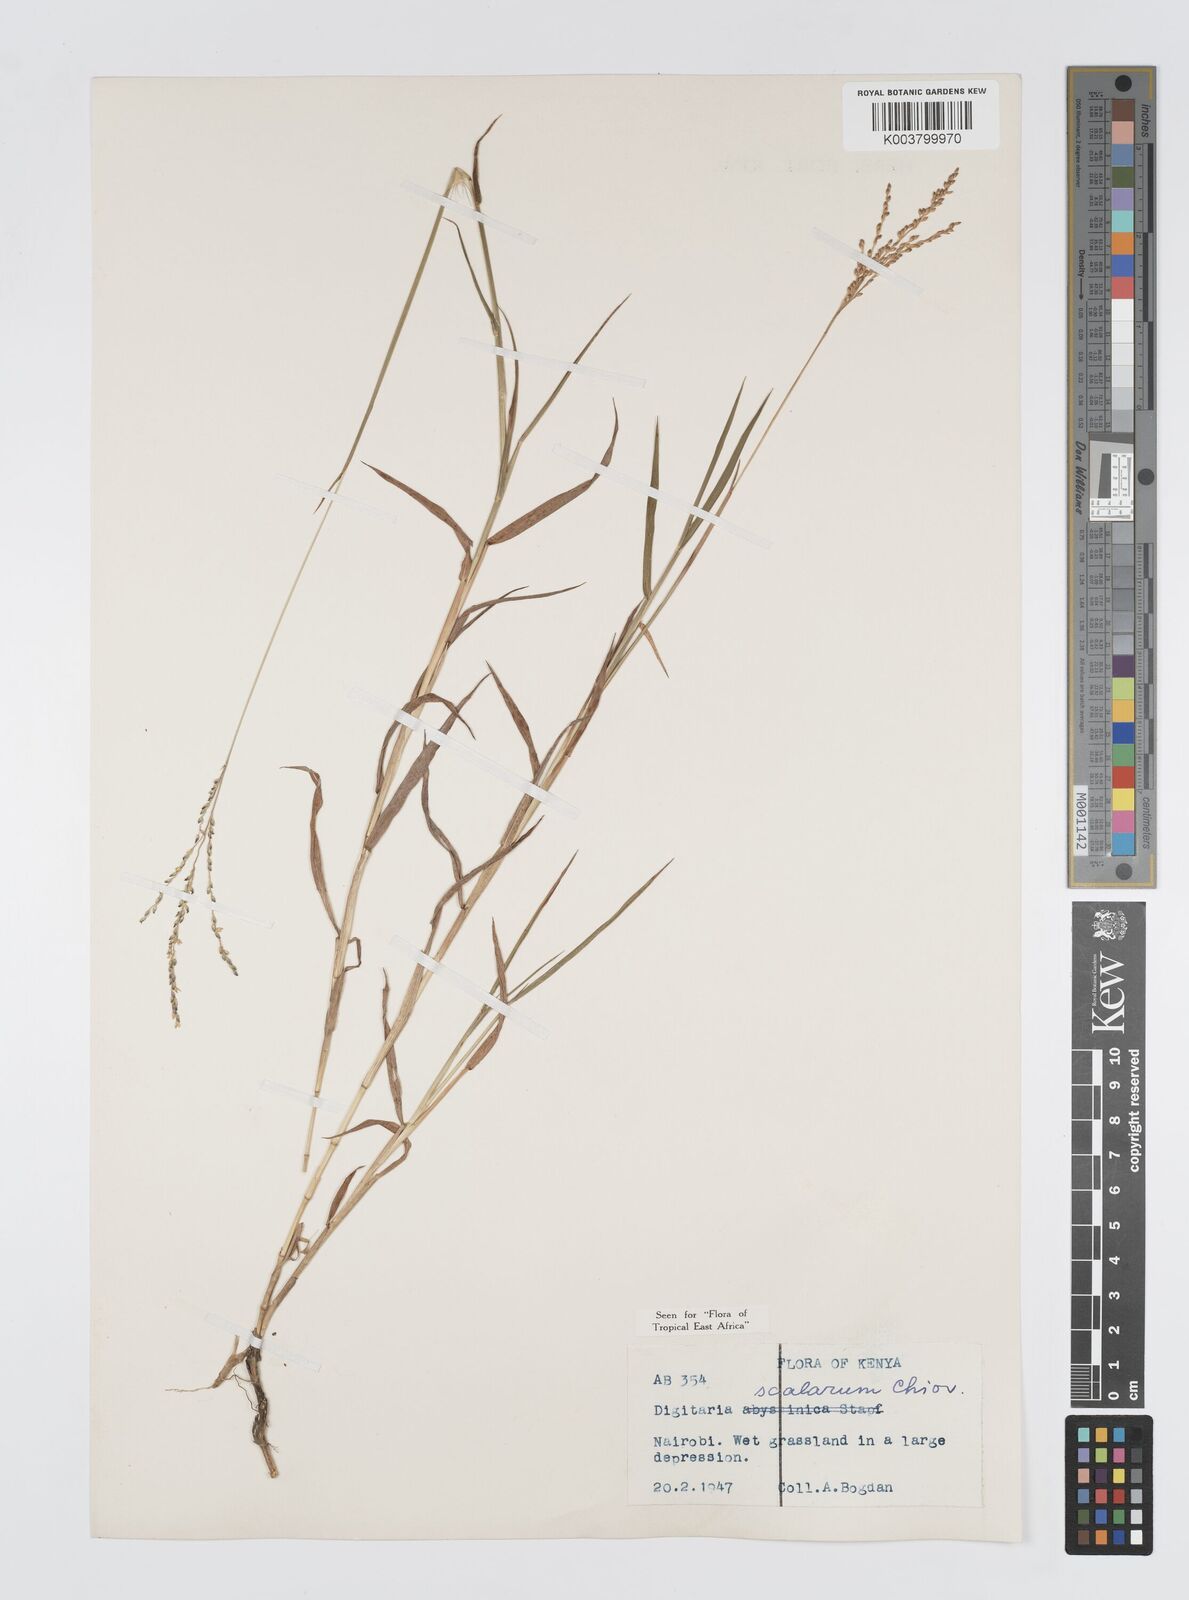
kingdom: Plantae
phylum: Tracheophyta
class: Liliopsida
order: Poales
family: Poaceae
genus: Digitaria
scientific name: Digitaria abyssinica
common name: African couchgrass
